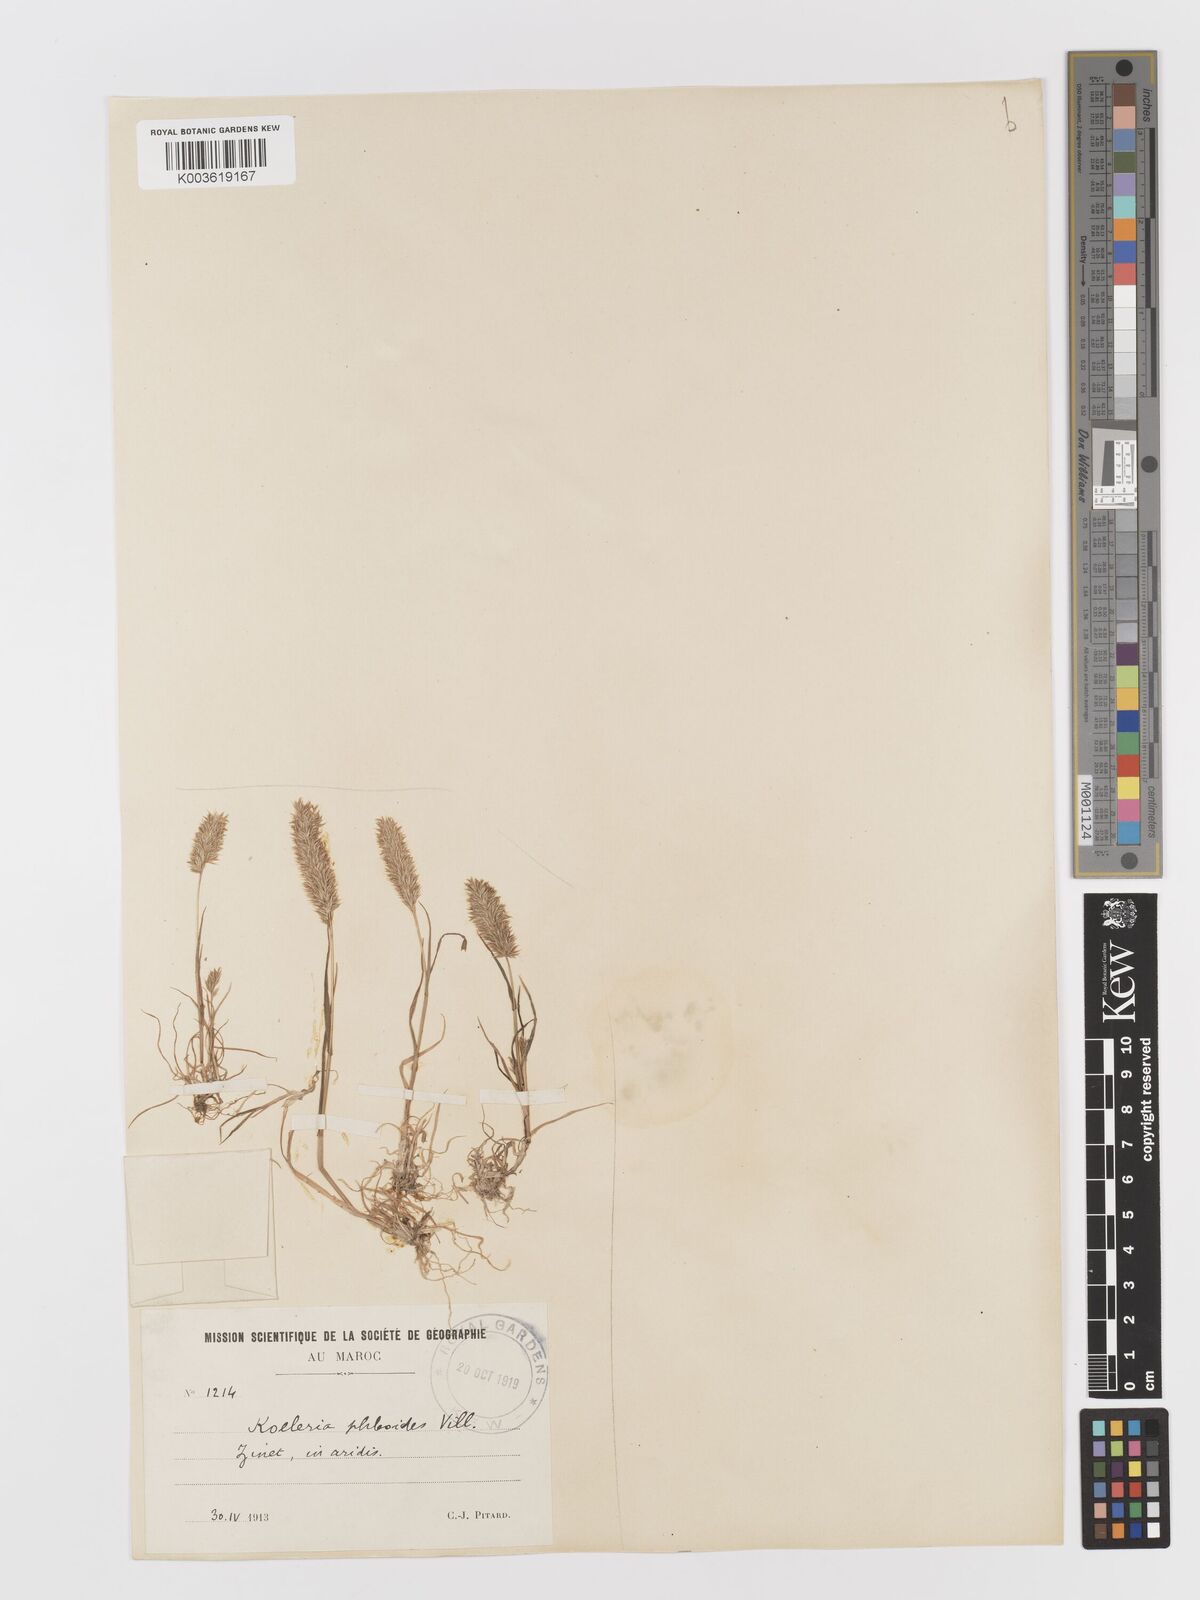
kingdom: Plantae
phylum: Tracheophyta
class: Liliopsida
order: Poales
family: Poaceae
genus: Rostraria
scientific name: Rostraria cristata
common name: Mediterranean hair-grass
